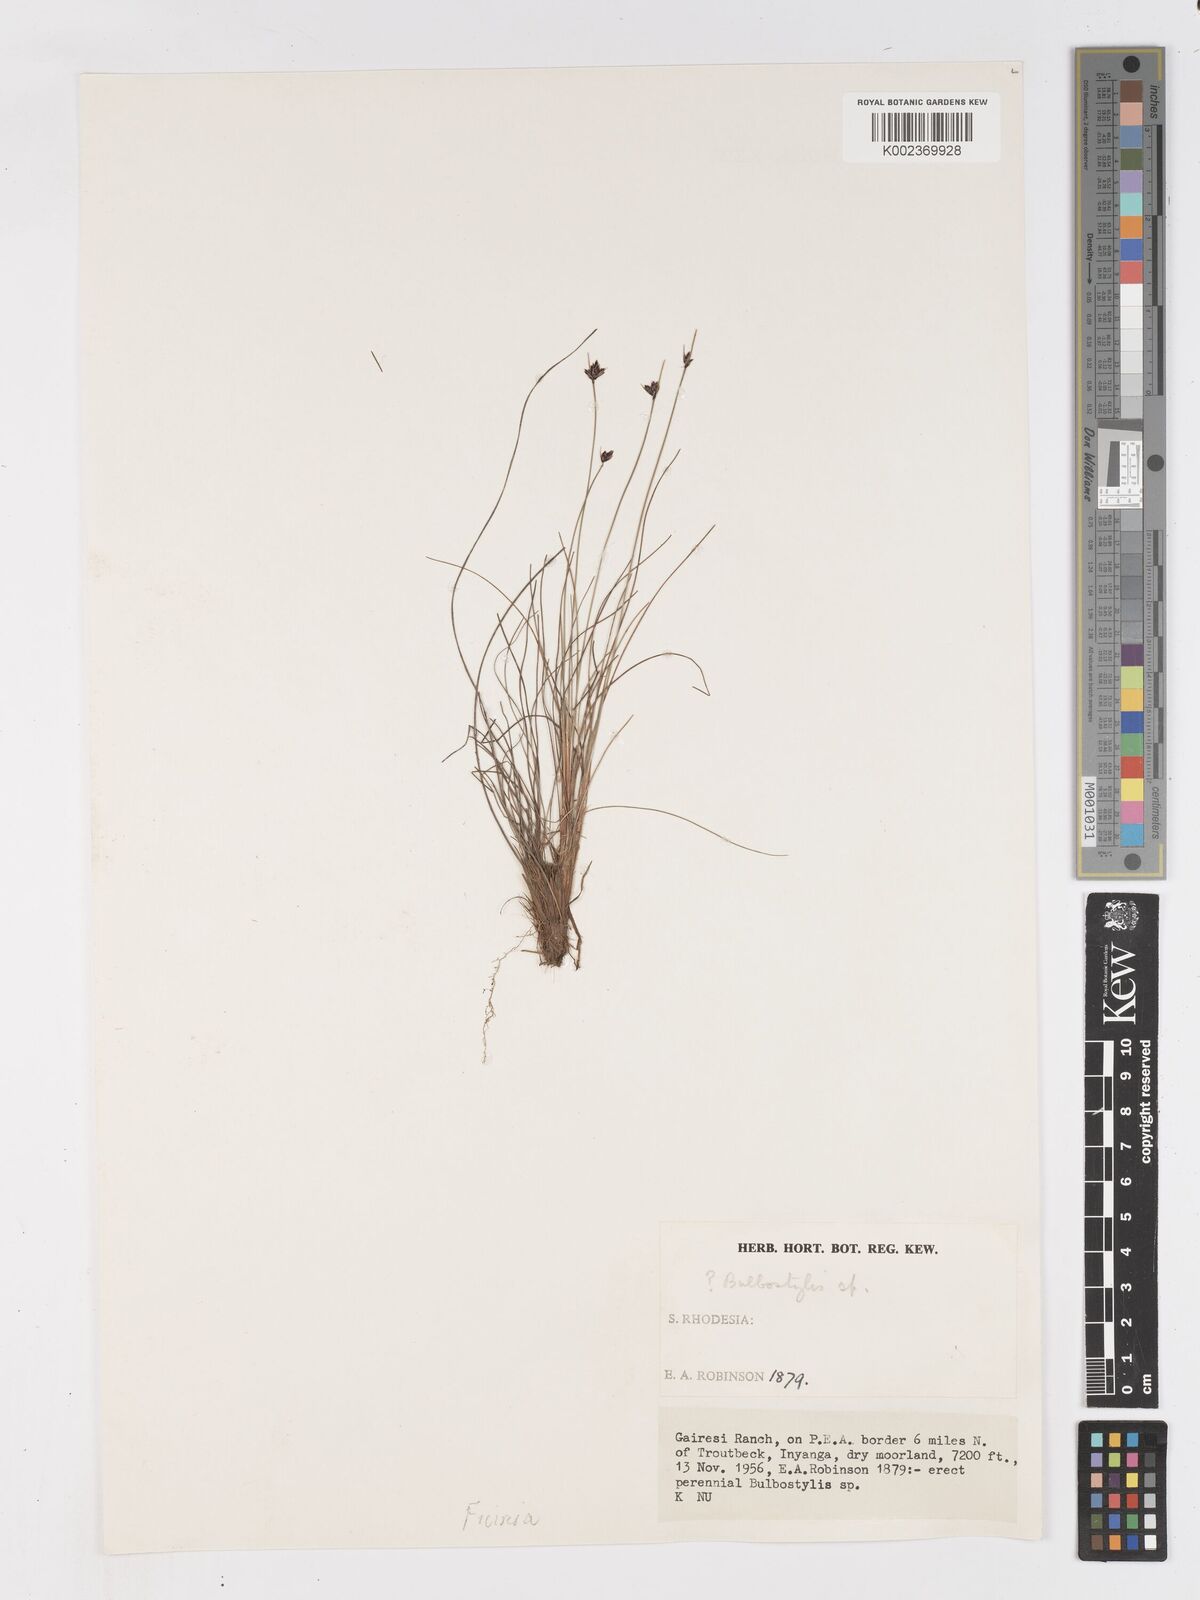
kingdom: Plantae
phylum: Tracheophyta
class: Liliopsida
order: Poales
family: Cyperaceae
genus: Ficinia
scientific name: Ficinia filiformis
